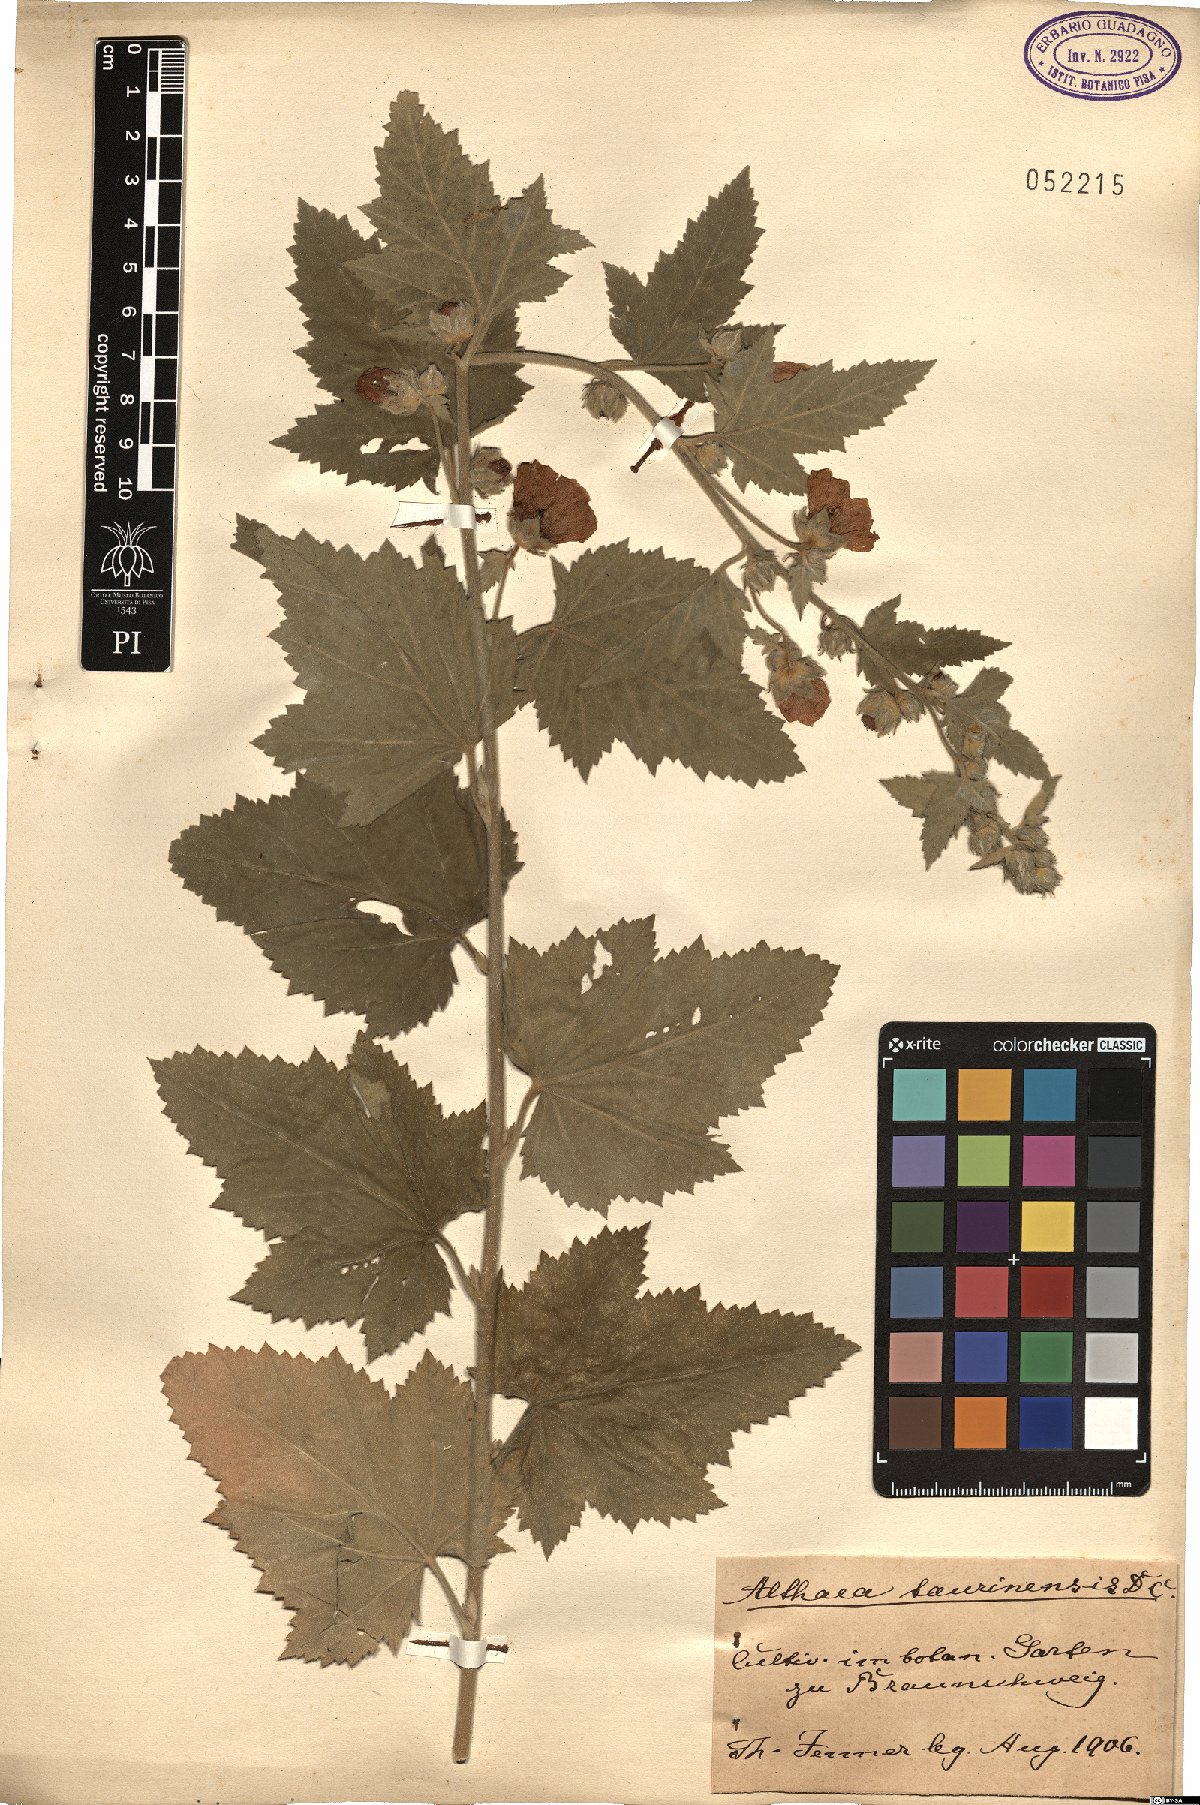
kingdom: Plantae
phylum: Tracheophyta
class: Magnoliopsida
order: Malvales
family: Malvaceae
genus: Althaea
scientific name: Althaea taurinensis
